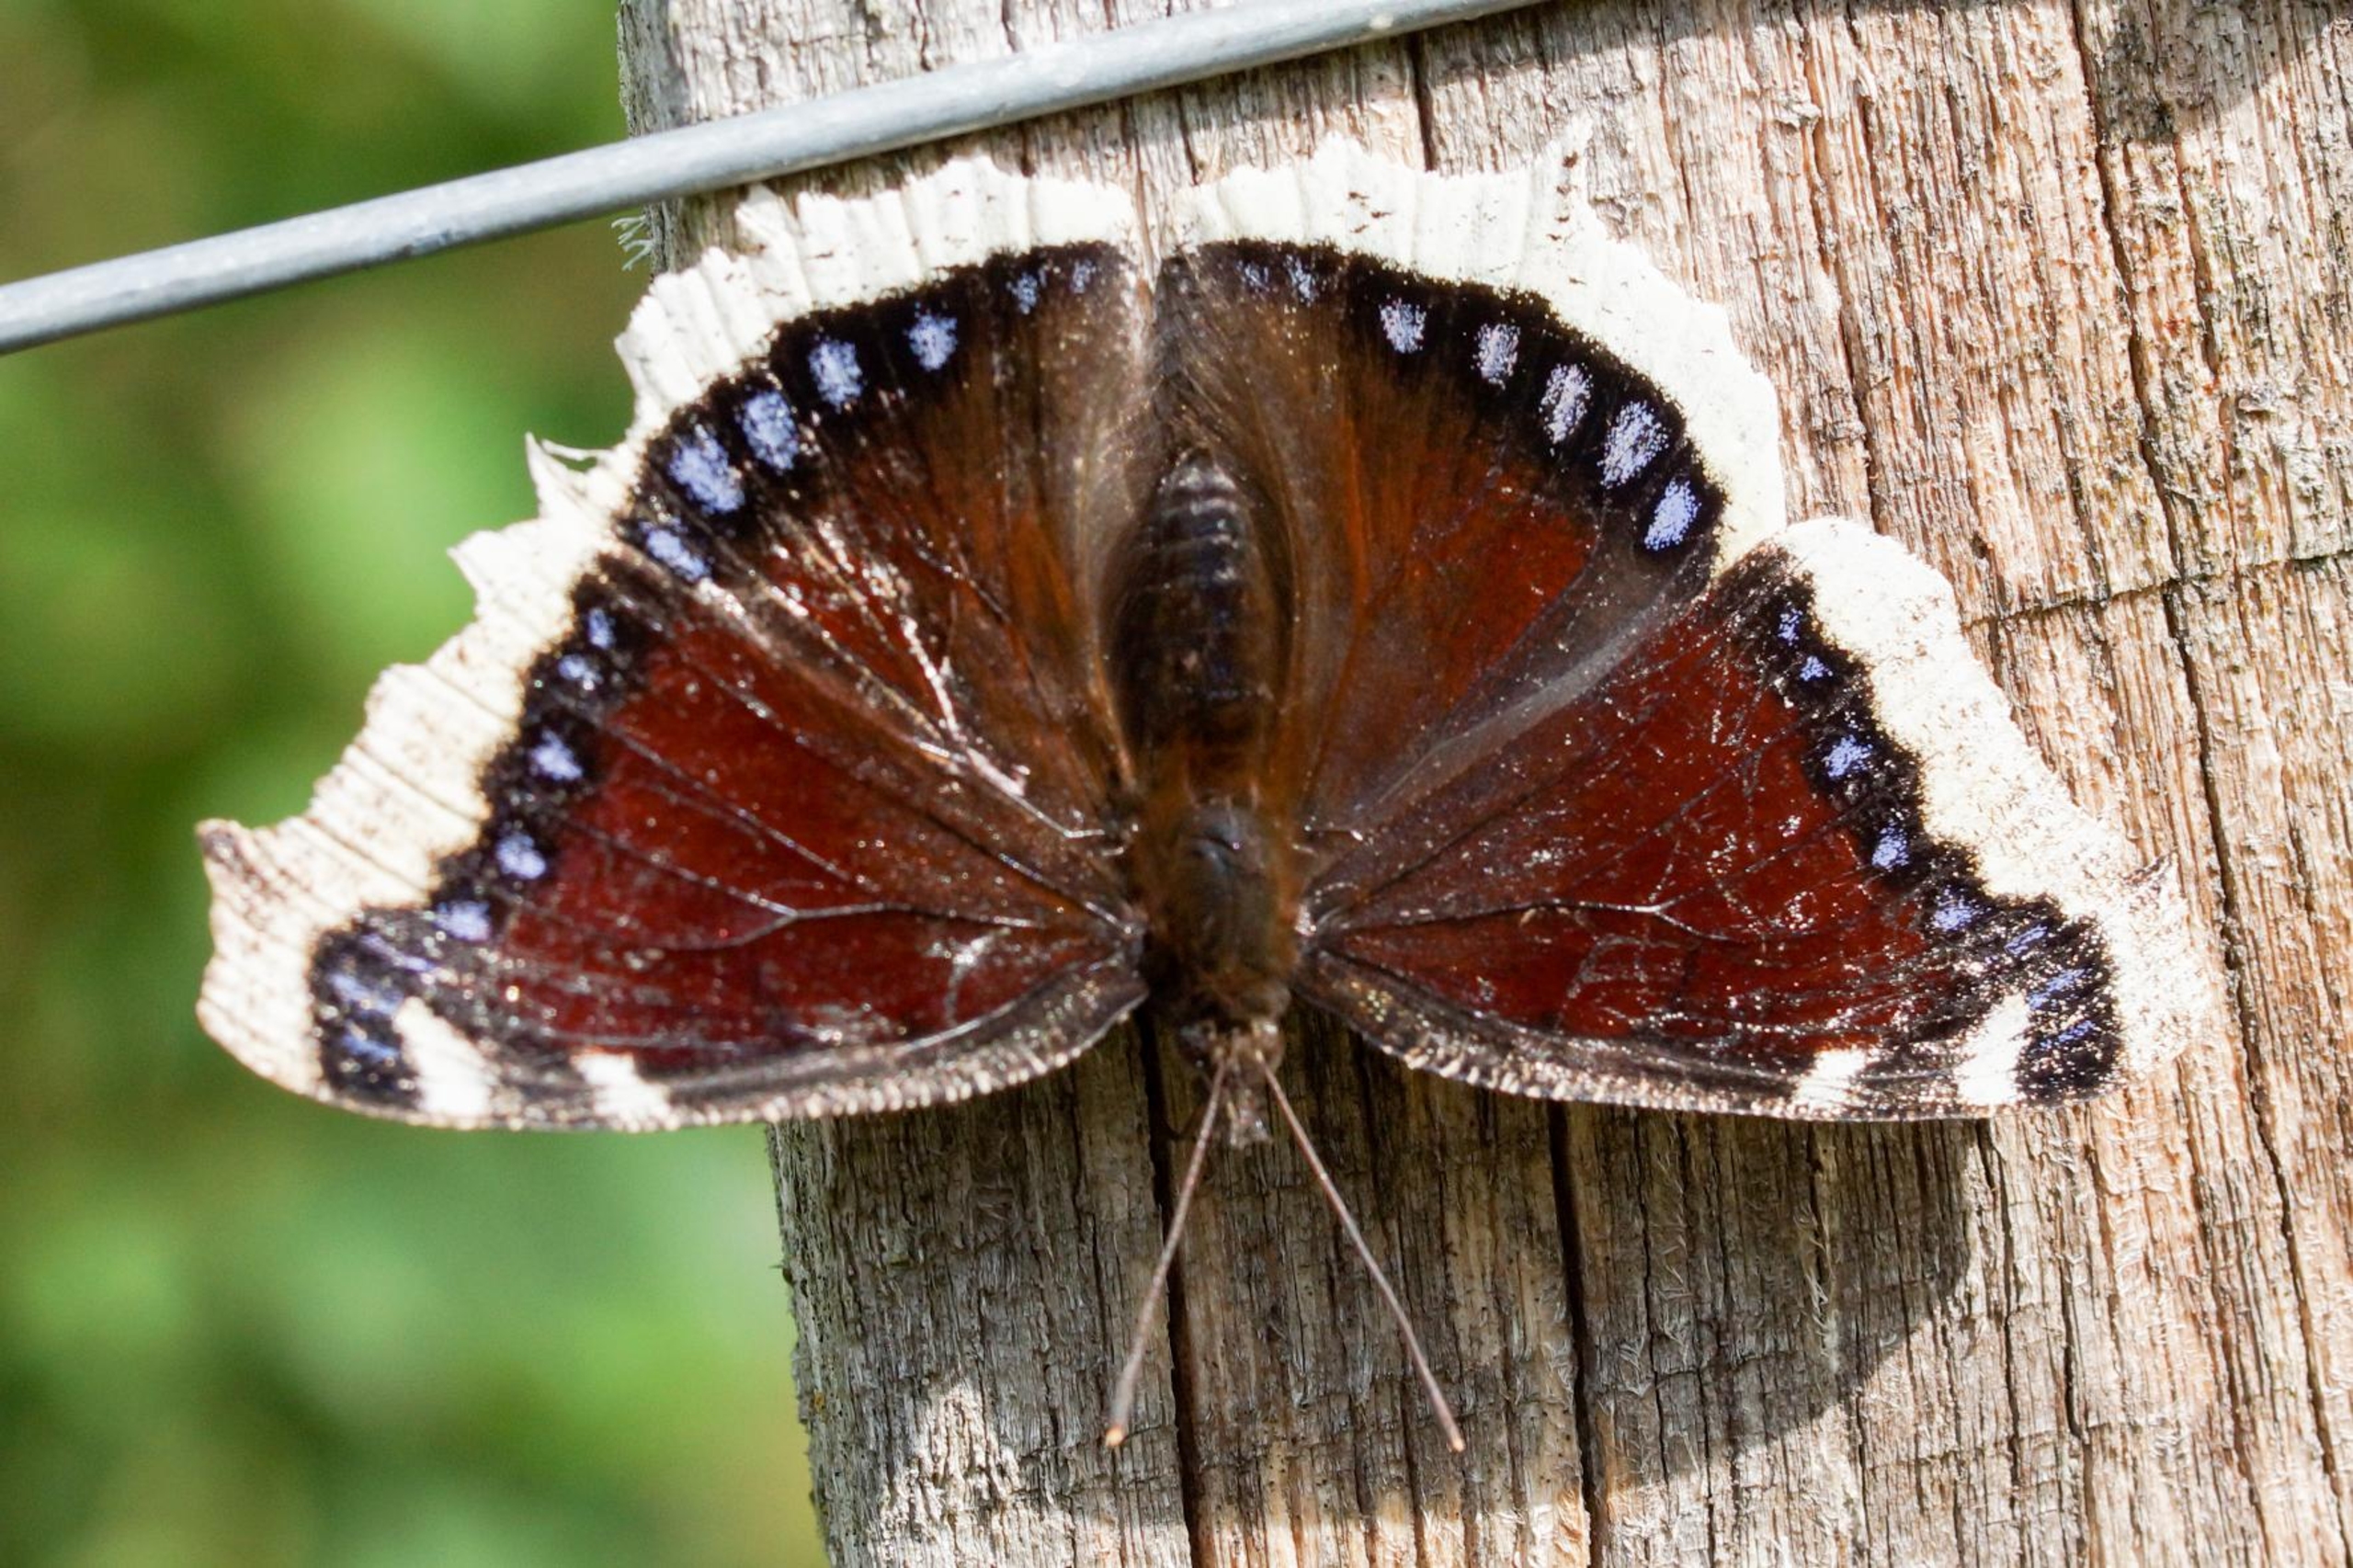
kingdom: Animalia
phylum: Arthropoda
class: Insecta
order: Lepidoptera
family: Nymphalidae
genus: Nymphalis
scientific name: Nymphalis antiopa
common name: Sørgekåbe
